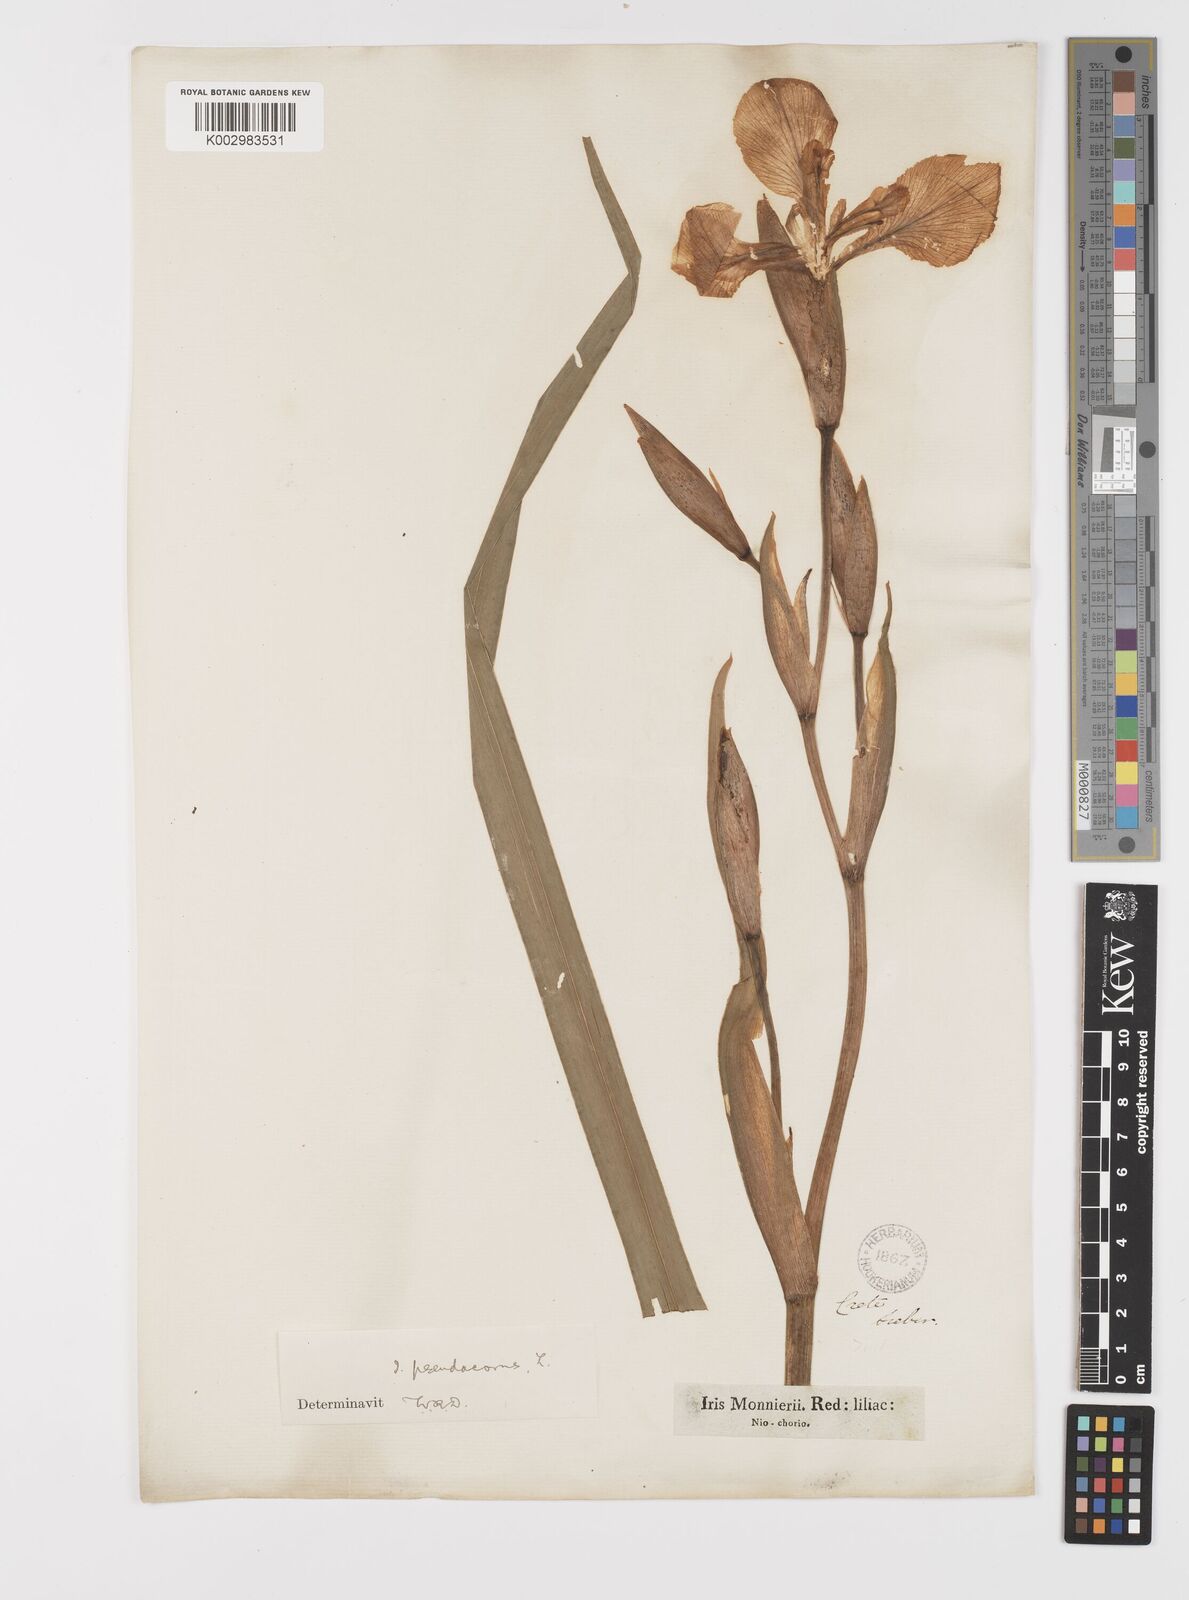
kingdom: Plantae
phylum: Tracheophyta
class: Liliopsida
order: Asparagales
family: Iridaceae
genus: Iris
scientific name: Iris pseudacorus
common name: Yellow flag
